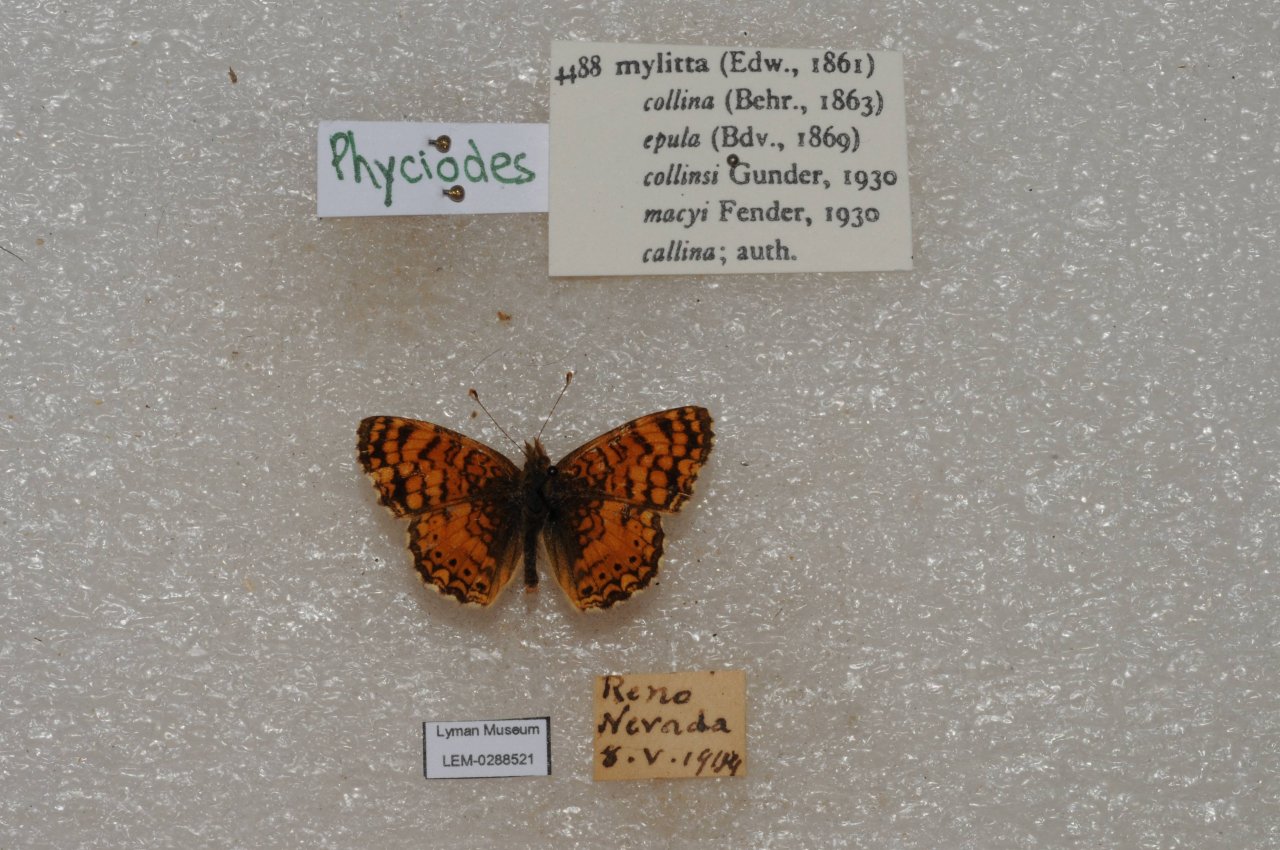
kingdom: Animalia
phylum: Arthropoda
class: Insecta
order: Lepidoptera
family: Nymphalidae
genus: Eresia
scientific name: Eresia aveyrona
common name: Mylitta Crescent
